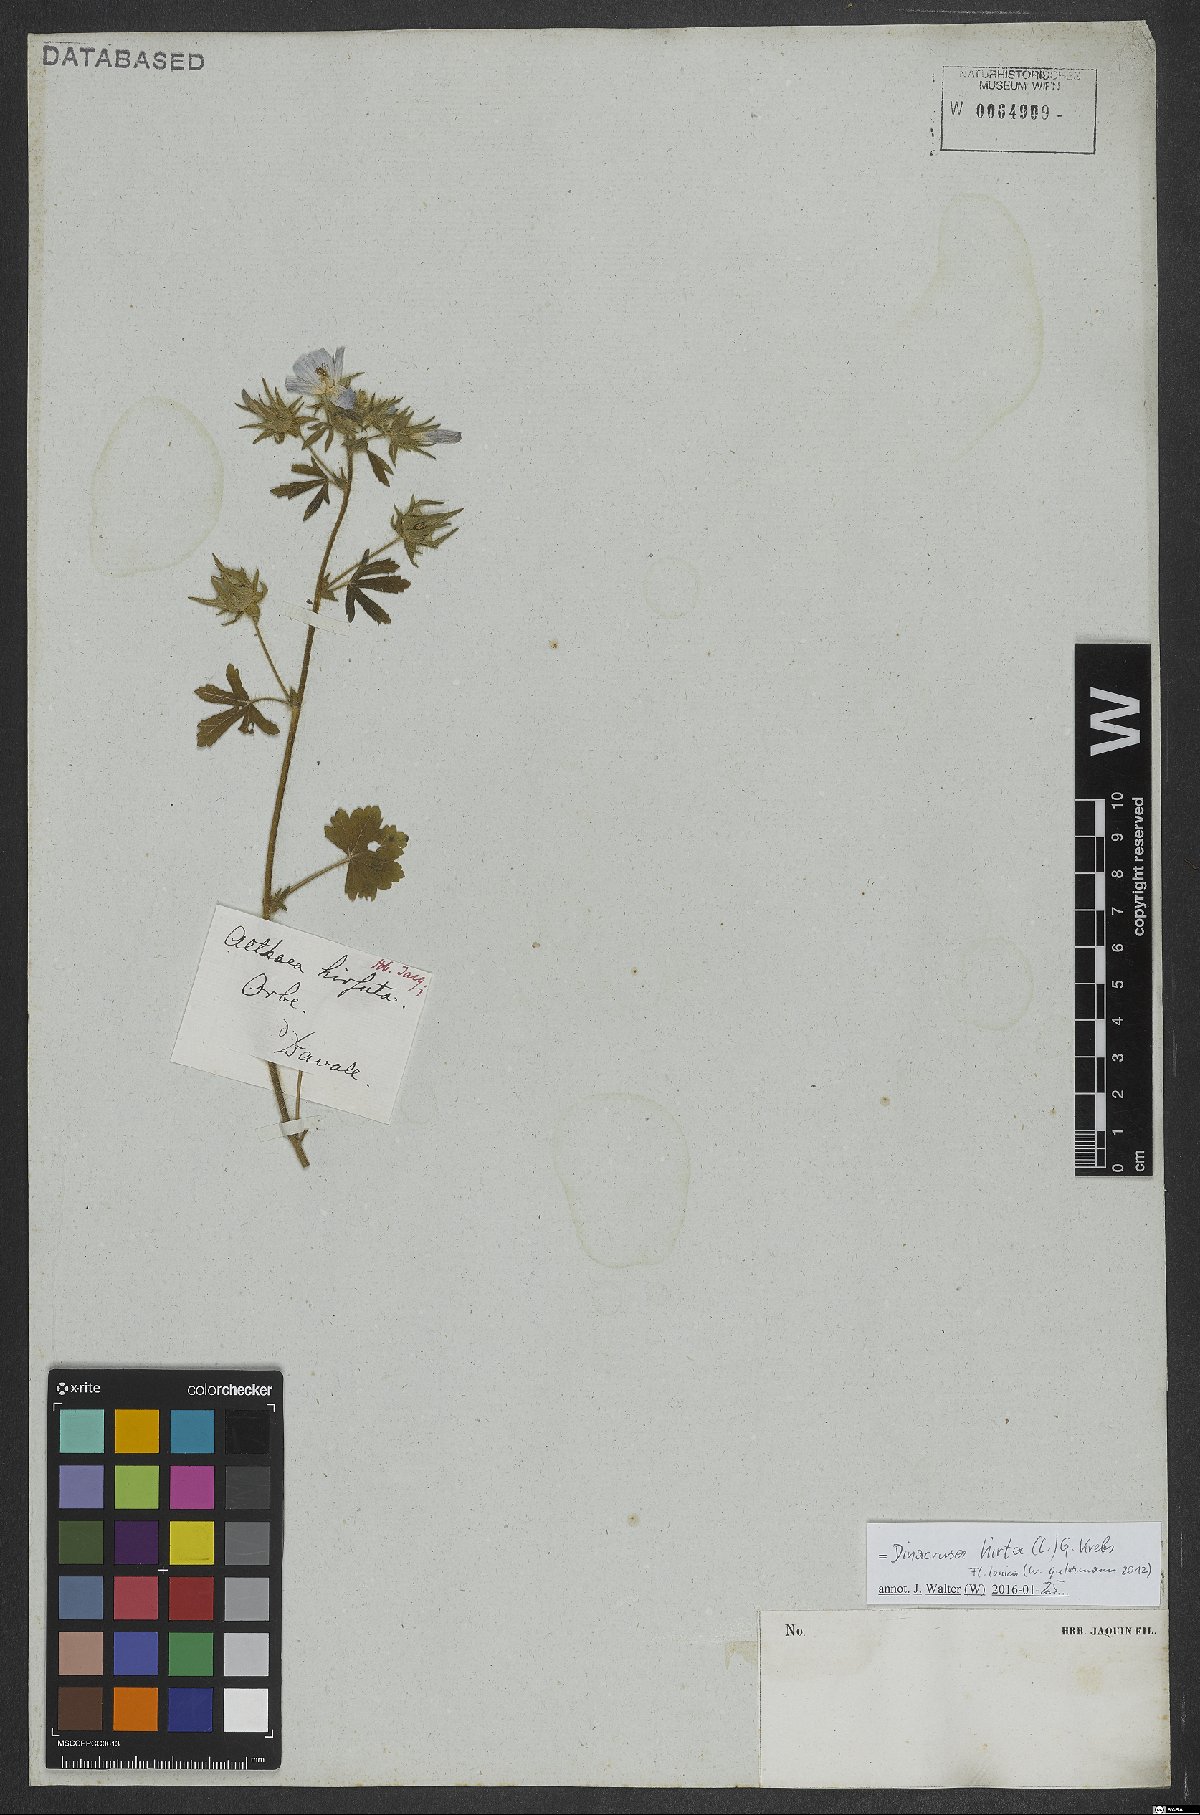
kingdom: Plantae
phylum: Tracheophyta
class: Magnoliopsida
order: Malvales
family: Malvaceae
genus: Althaea
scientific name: Althaea hirsuta
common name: Rough marsh-mallow
